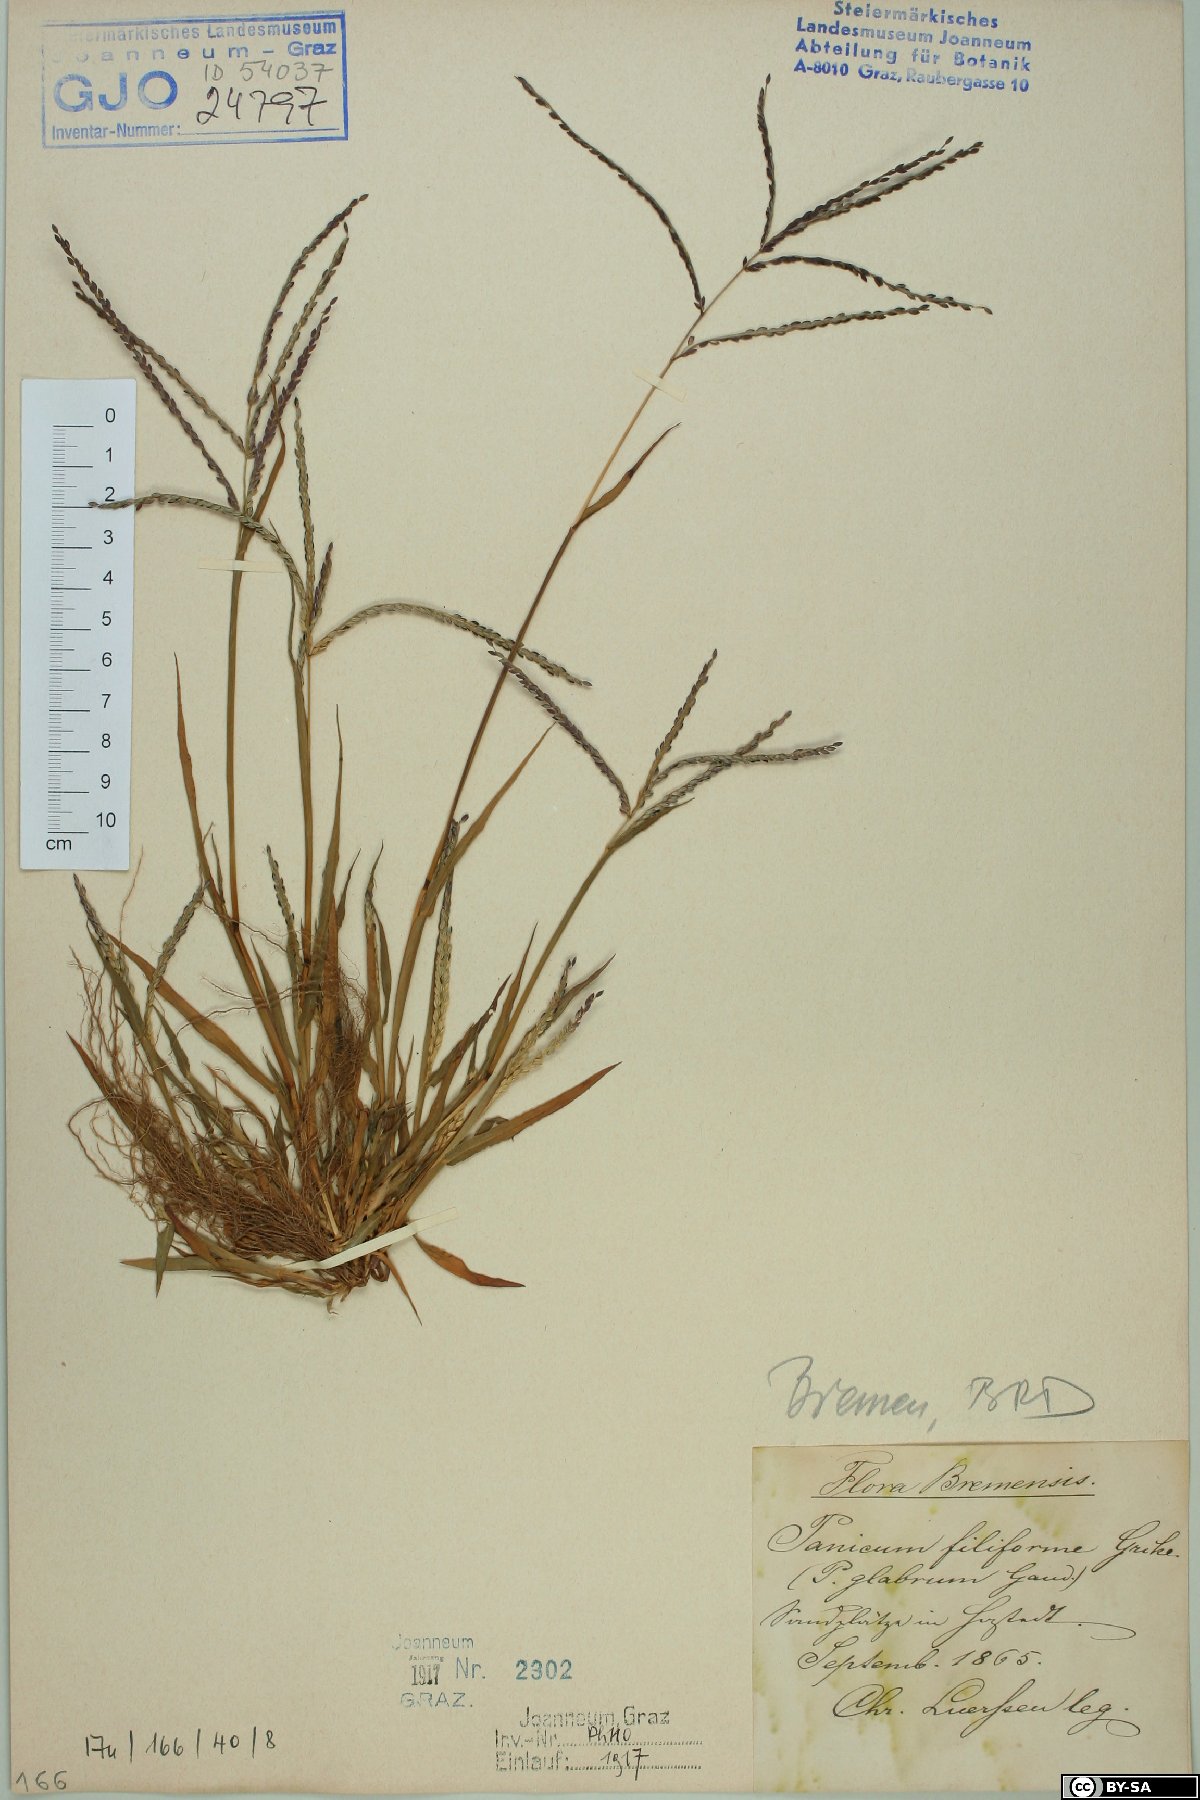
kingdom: Plantae
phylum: Tracheophyta
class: Liliopsida
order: Poales
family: Poaceae
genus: Digitaria
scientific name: Digitaria filiformis
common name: Slender crabgrass
